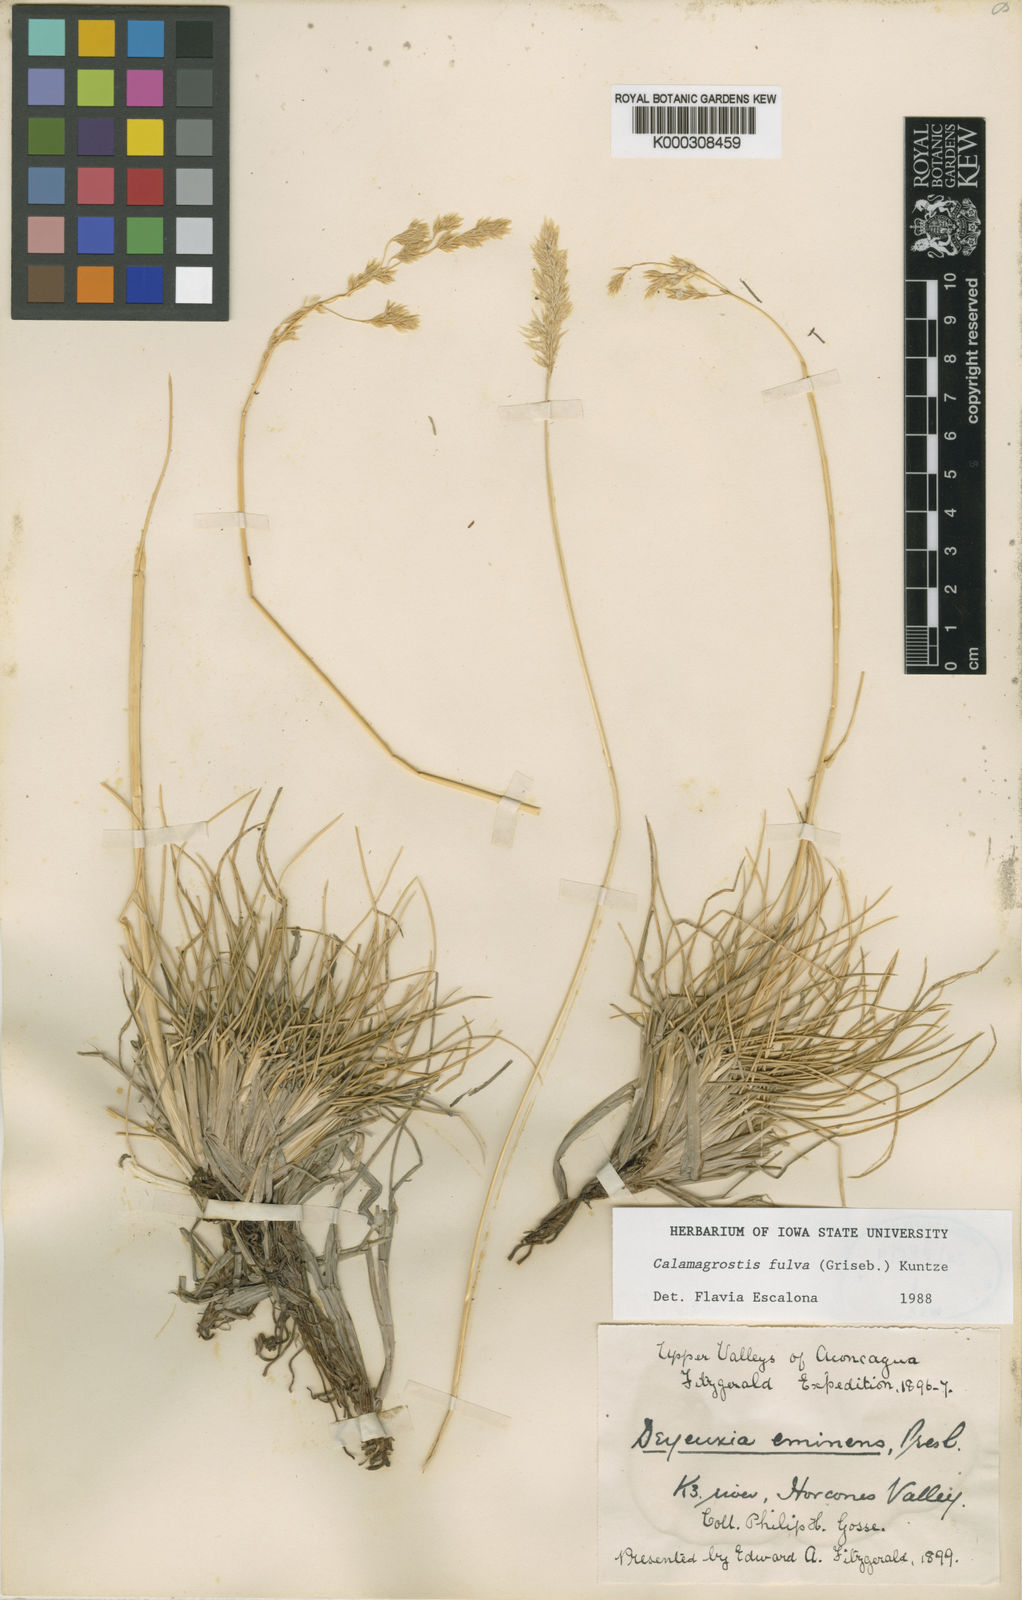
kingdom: Plantae
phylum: Tracheophyta
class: Liliopsida
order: Poales
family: Poaceae
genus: Deschampsia
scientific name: Deschampsia eminens
